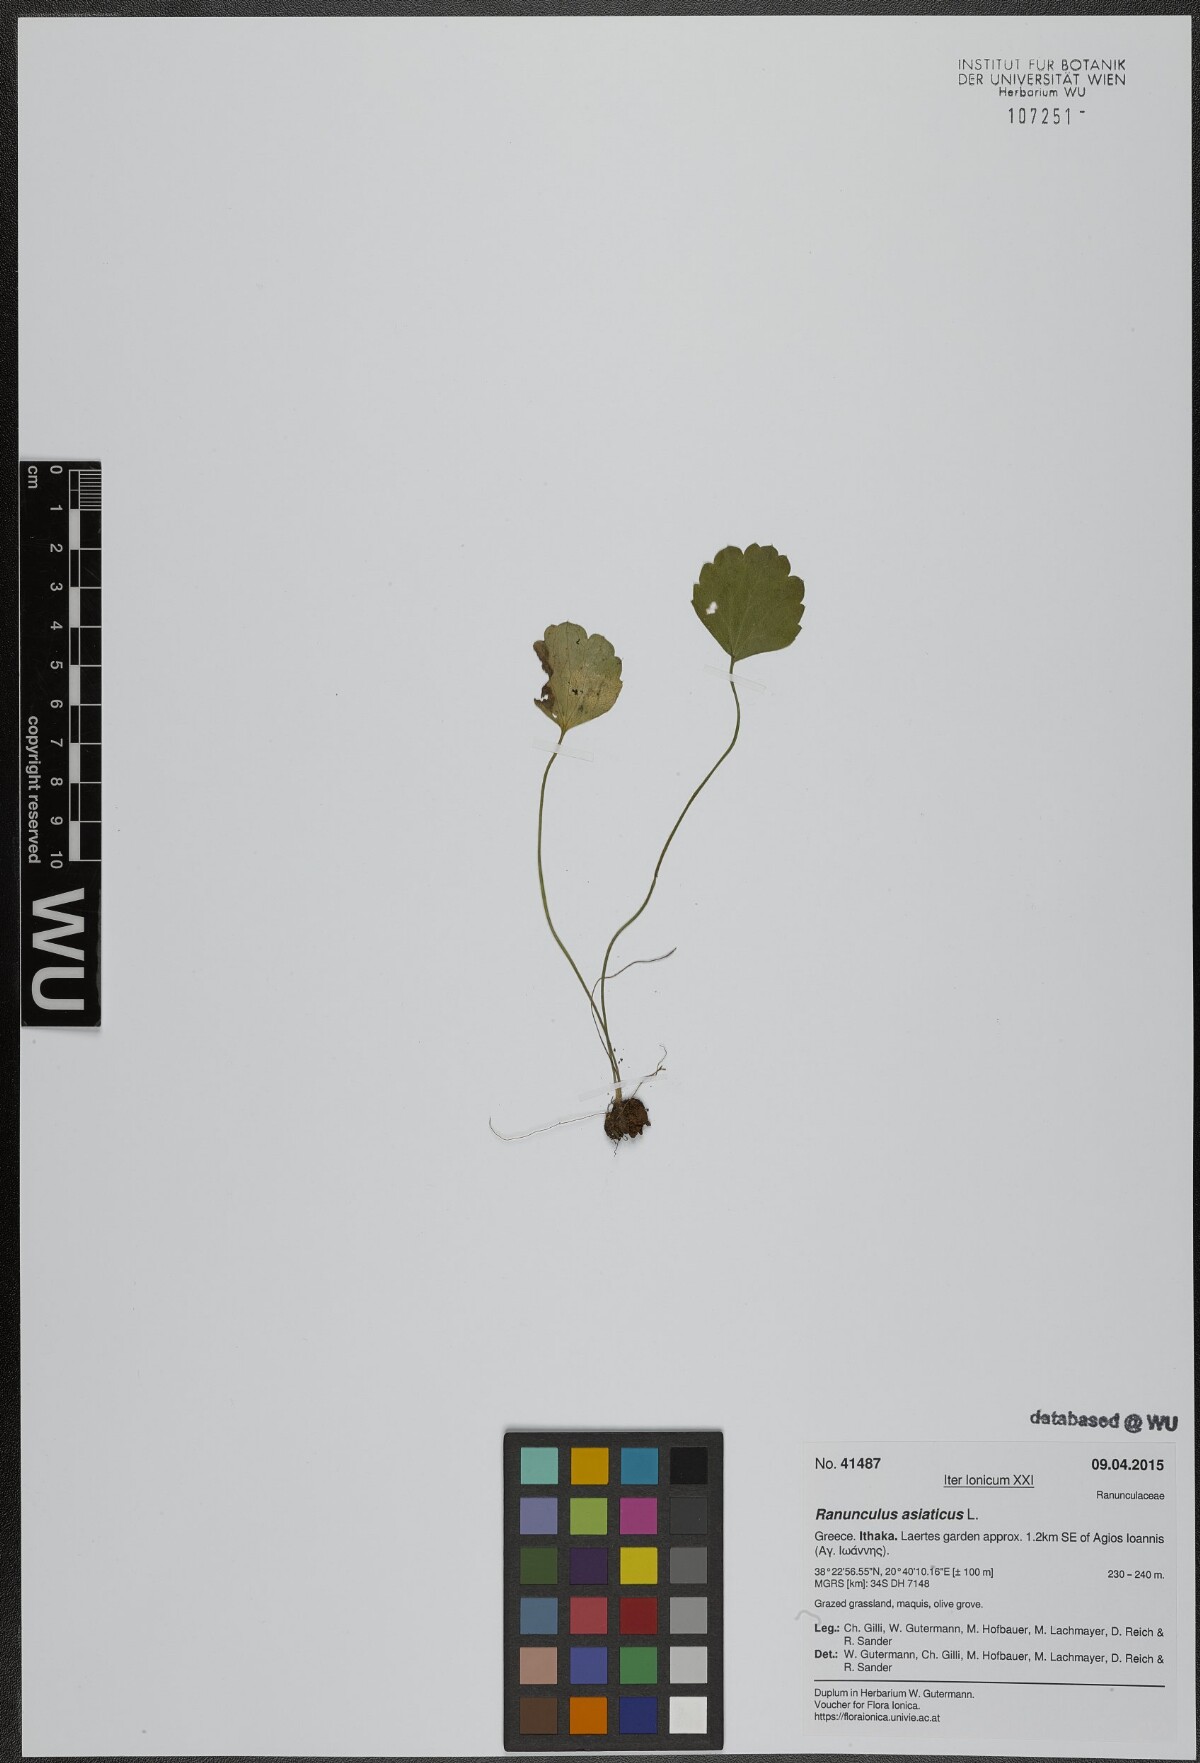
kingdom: Plantae
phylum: Tracheophyta
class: Magnoliopsida
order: Ranunculales
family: Ranunculaceae
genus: Ranunculus
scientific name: Ranunculus asiaticus
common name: Persian buttercup
